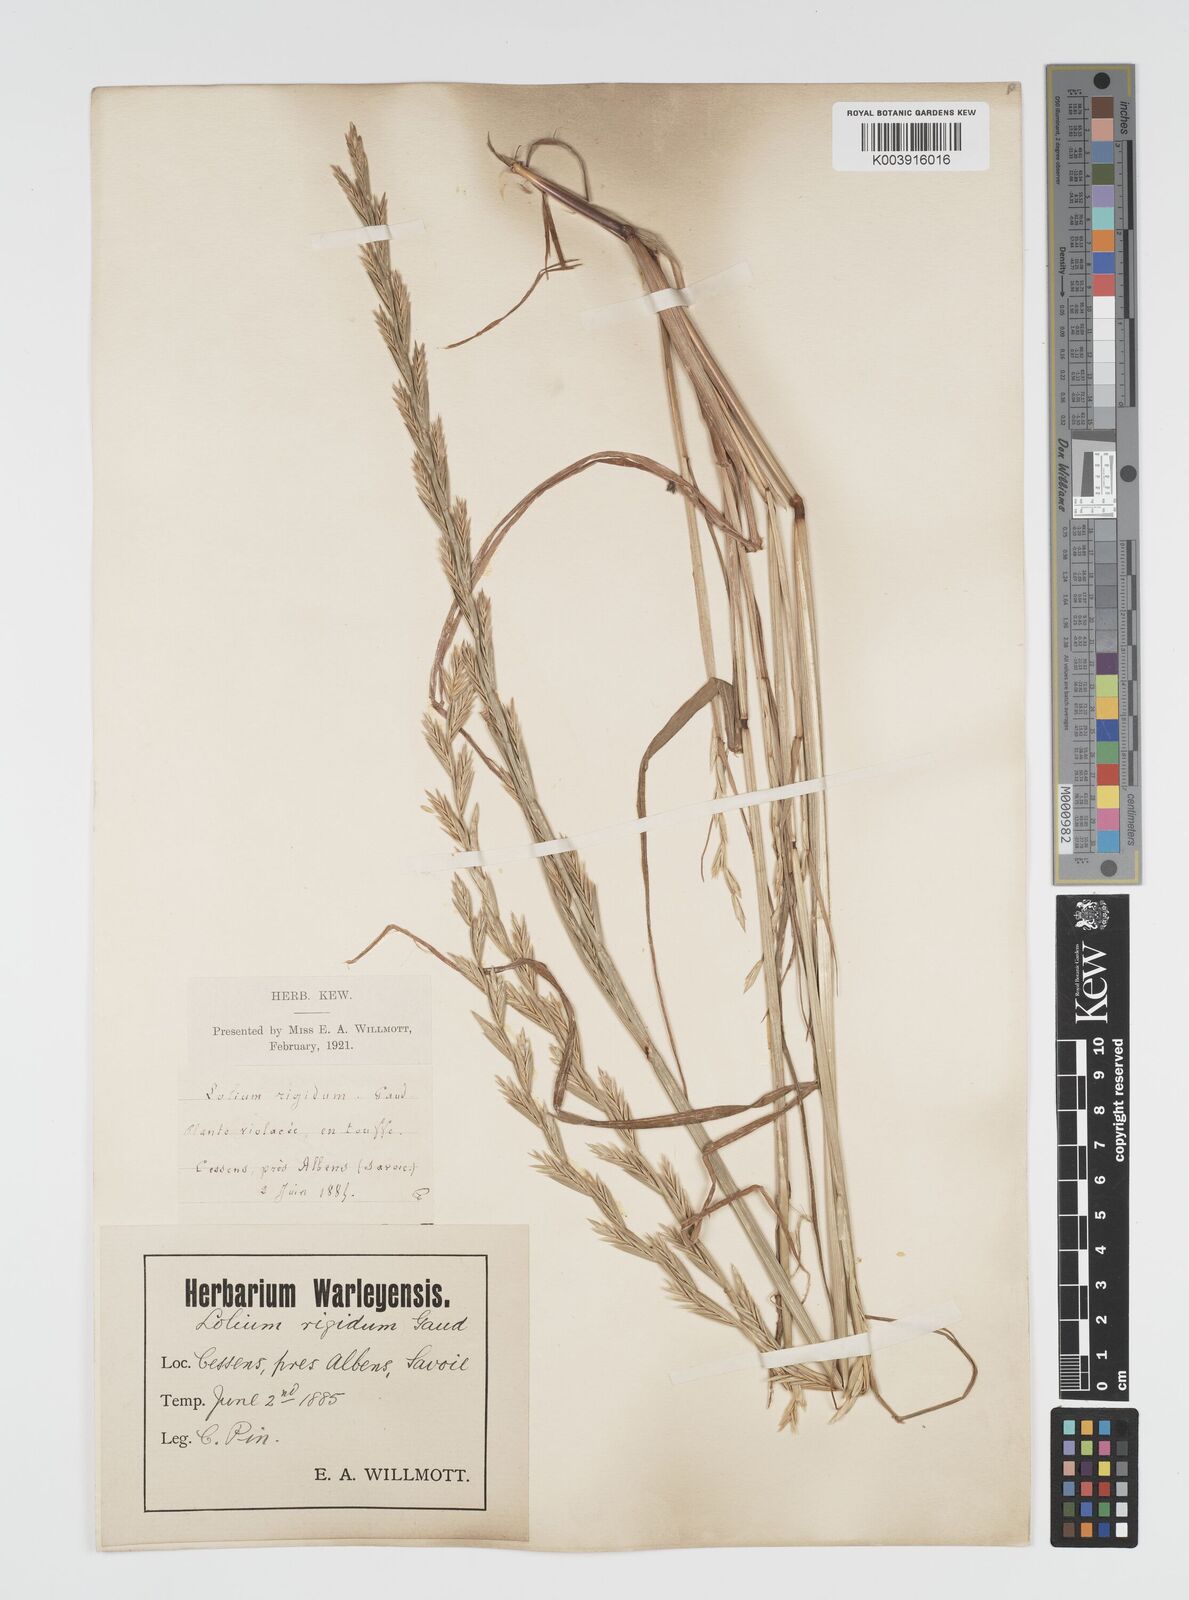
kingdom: Plantae
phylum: Tracheophyta
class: Liliopsida
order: Poales
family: Poaceae
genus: Lolium
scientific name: Lolium multiflorum
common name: Annual ryegrass
